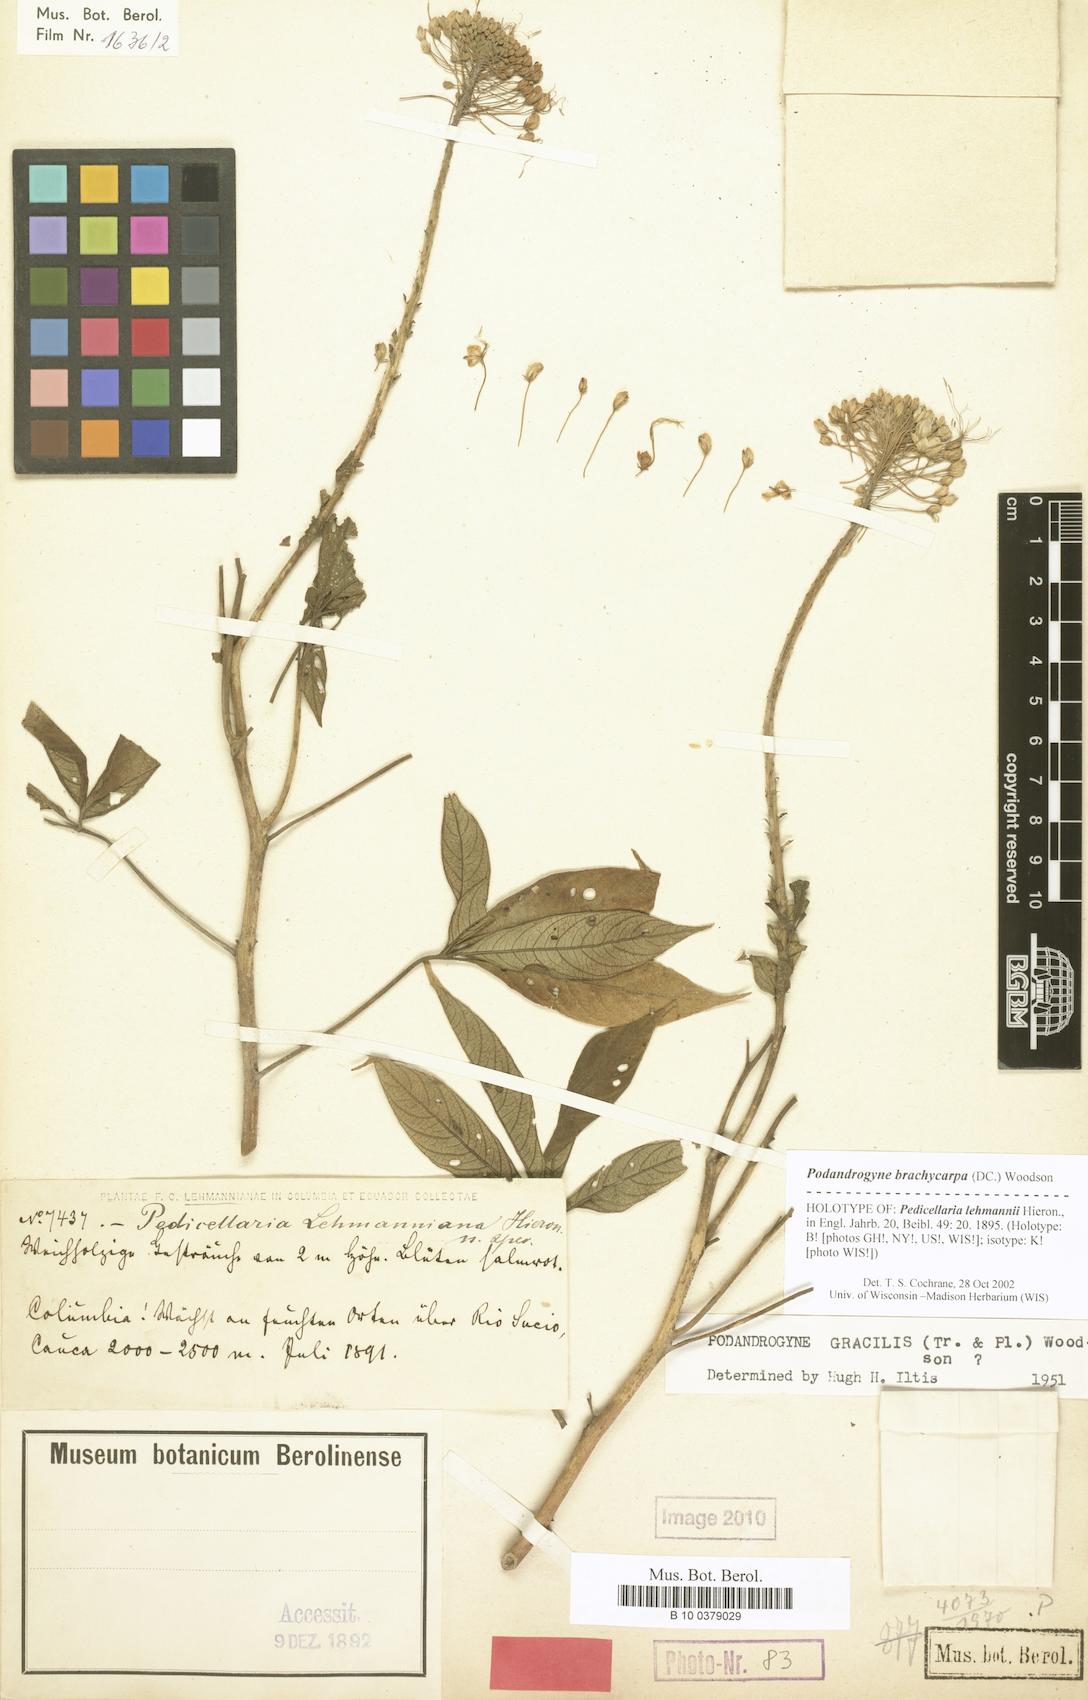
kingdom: Plantae
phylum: Tracheophyta
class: Magnoliopsida
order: Brassicales
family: Cleomaceae
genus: Podandrogyne
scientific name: Podandrogyne hispidula
